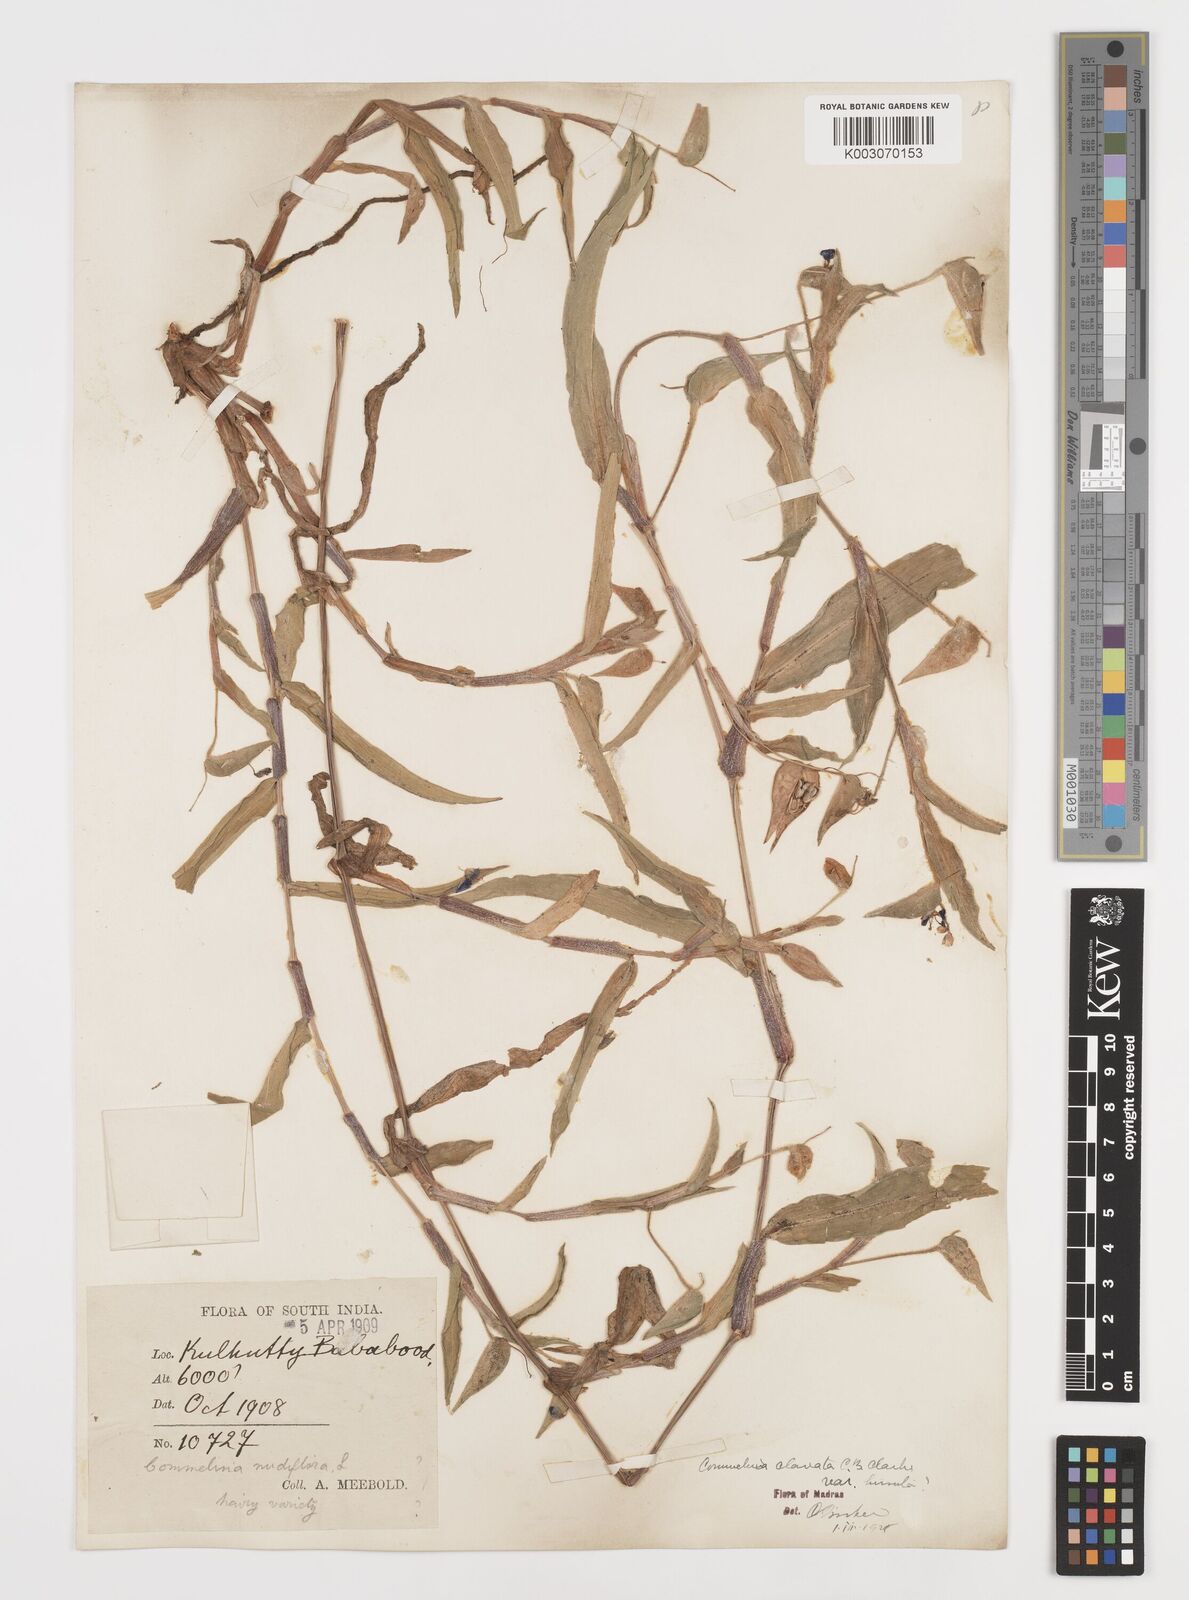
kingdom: Plantae
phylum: Tracheophyta
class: Liliopsida
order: Commelinales
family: Commelinaceae
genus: Commelina
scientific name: Commelina clavata
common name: Willow leaved dayflower
